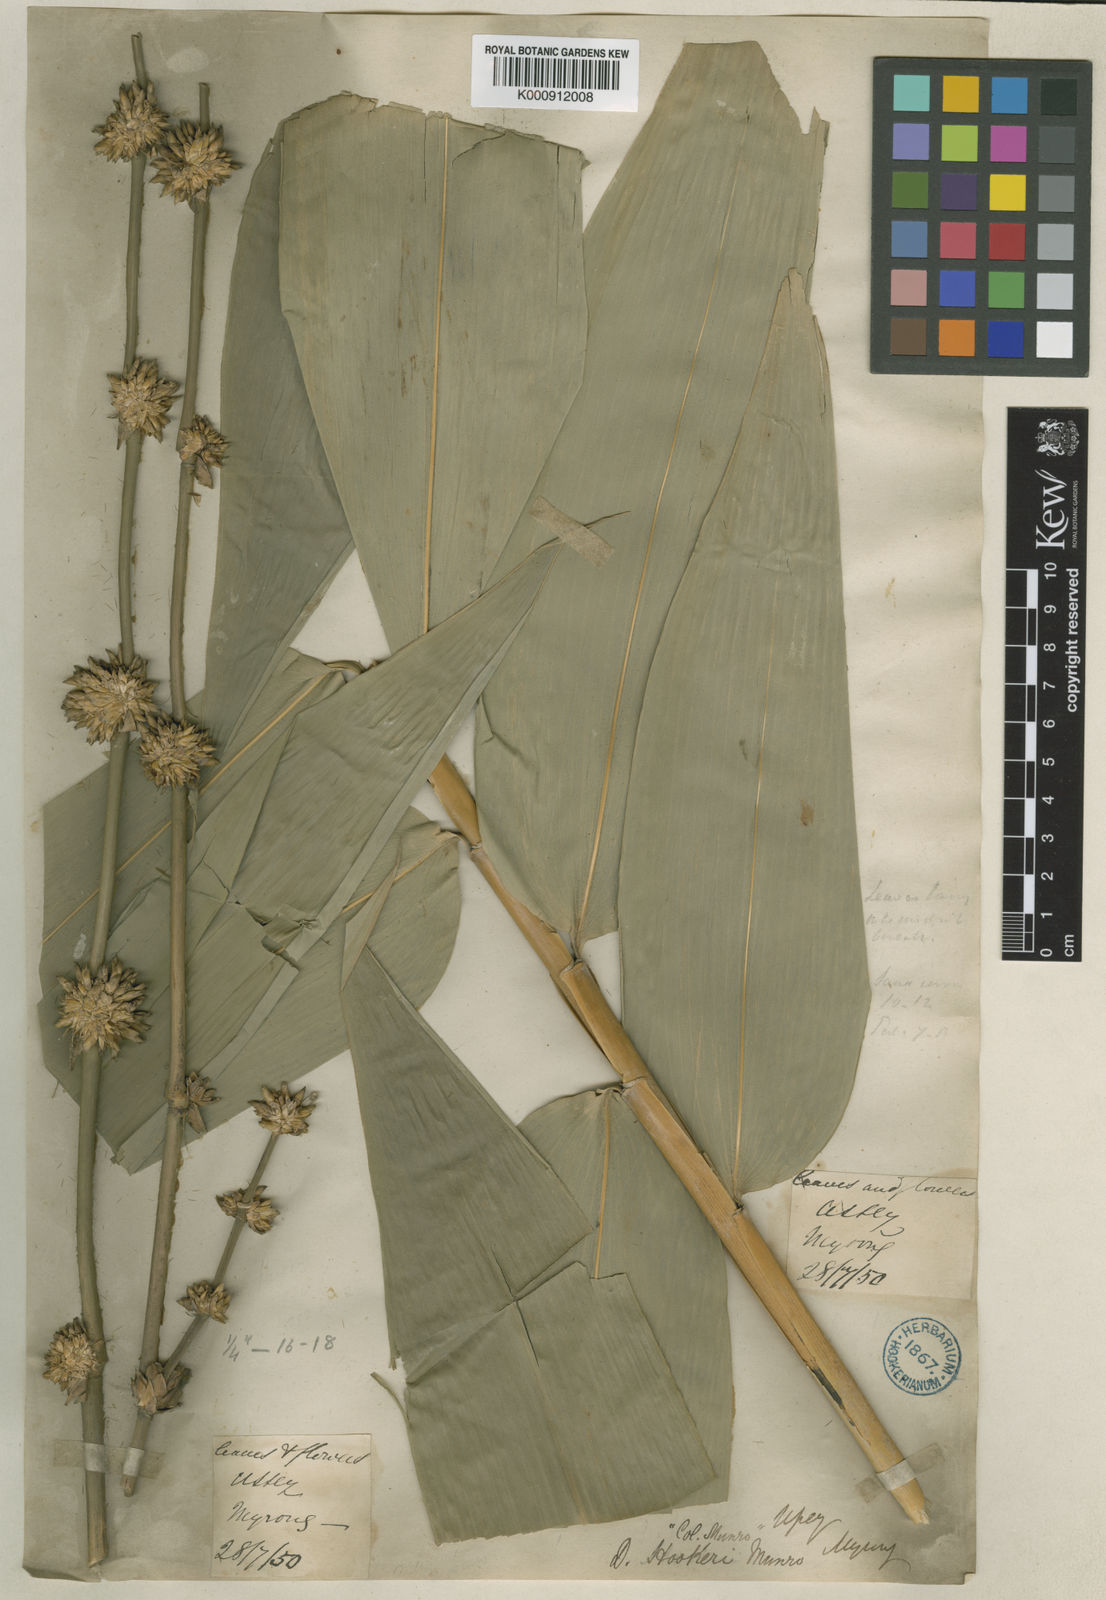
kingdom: Plantae
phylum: Tracheophyta
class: Liliopsida
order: Poales
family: Poaceae
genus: Dendrocalamus
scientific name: Dendrocalamus hookeri
